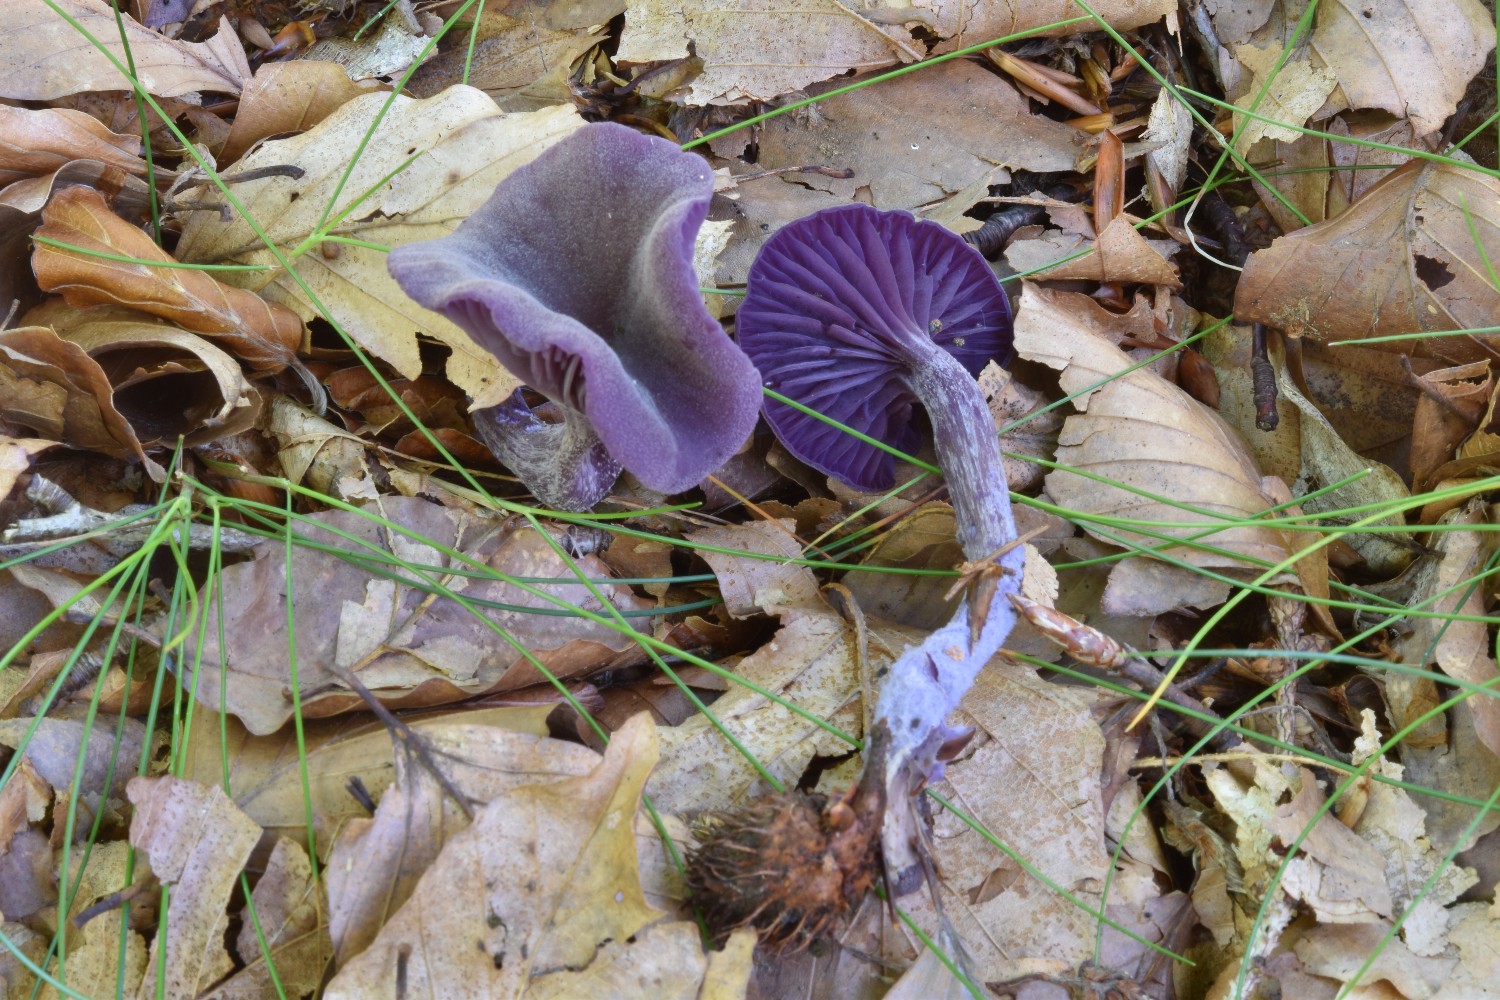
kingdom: Fungi
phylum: Basidiomycota
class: Agaricomycetes
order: Agaricales
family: Hydnangiaceae
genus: Laccaria
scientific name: Laccaria amethystina
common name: violet ametysthat
